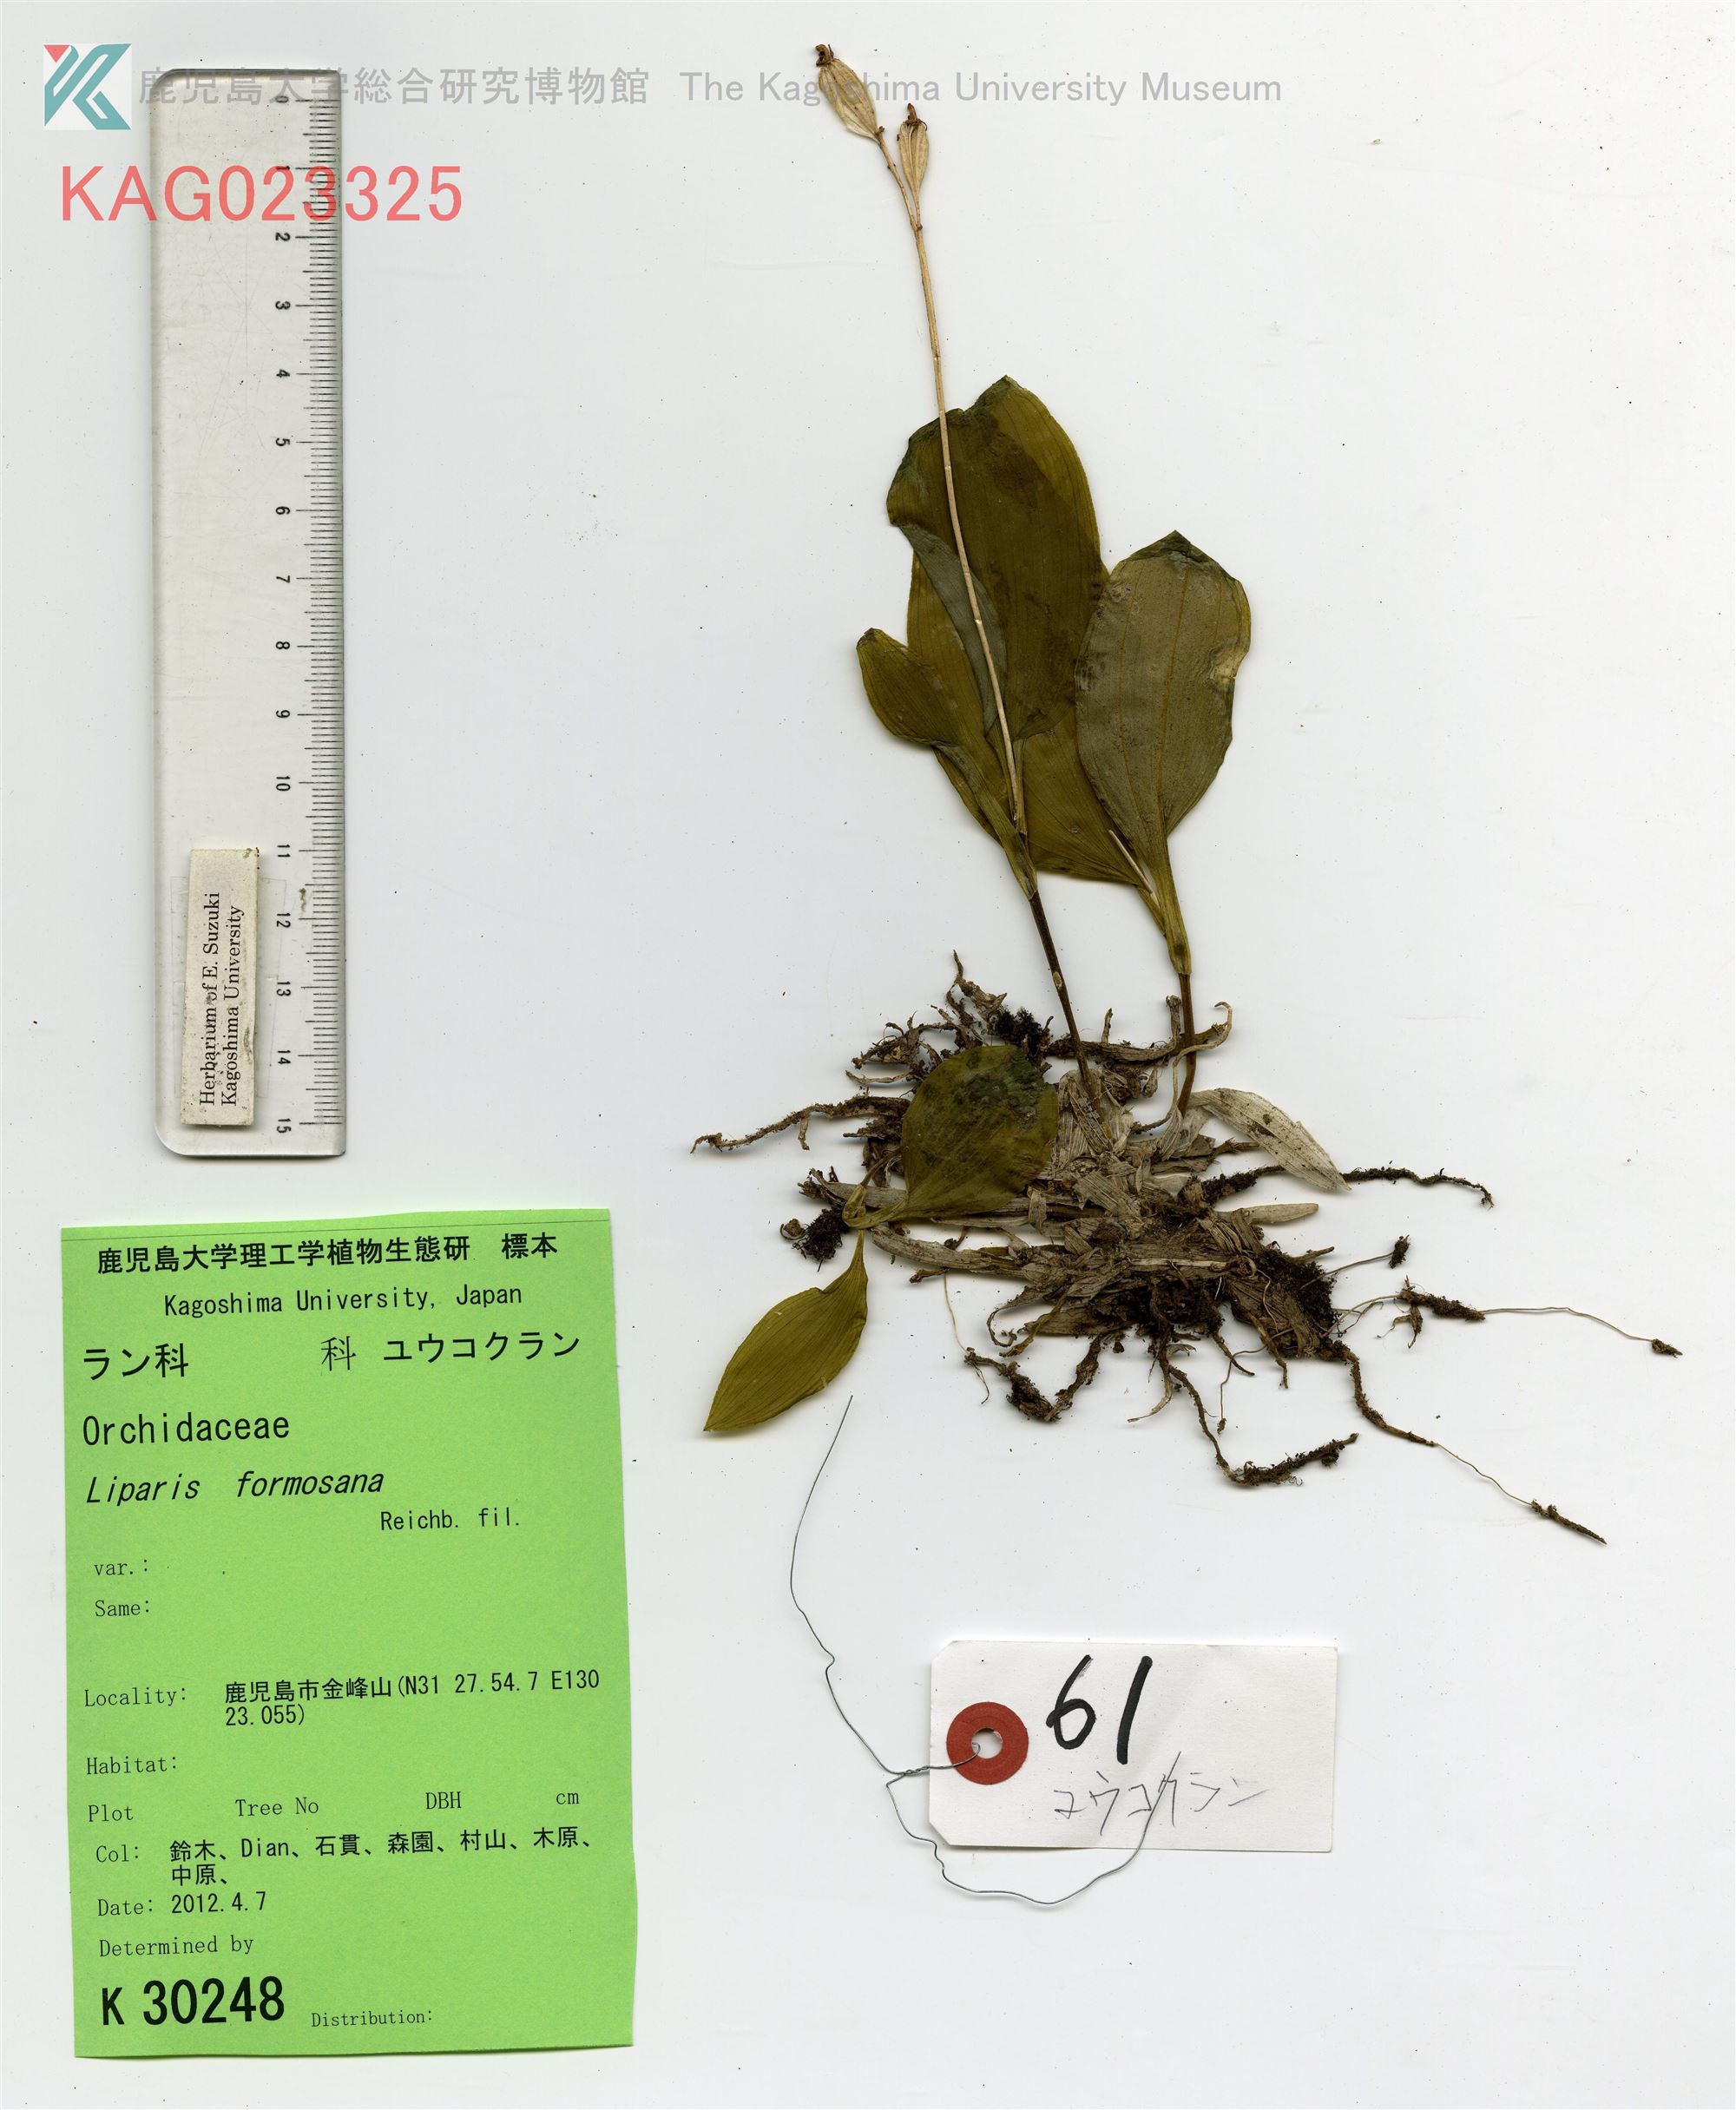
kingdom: Plantae
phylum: Tracheophyta
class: Liliopsida
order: Asparagales
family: Orchidaceae
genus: Liparis
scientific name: Liparis formosana
